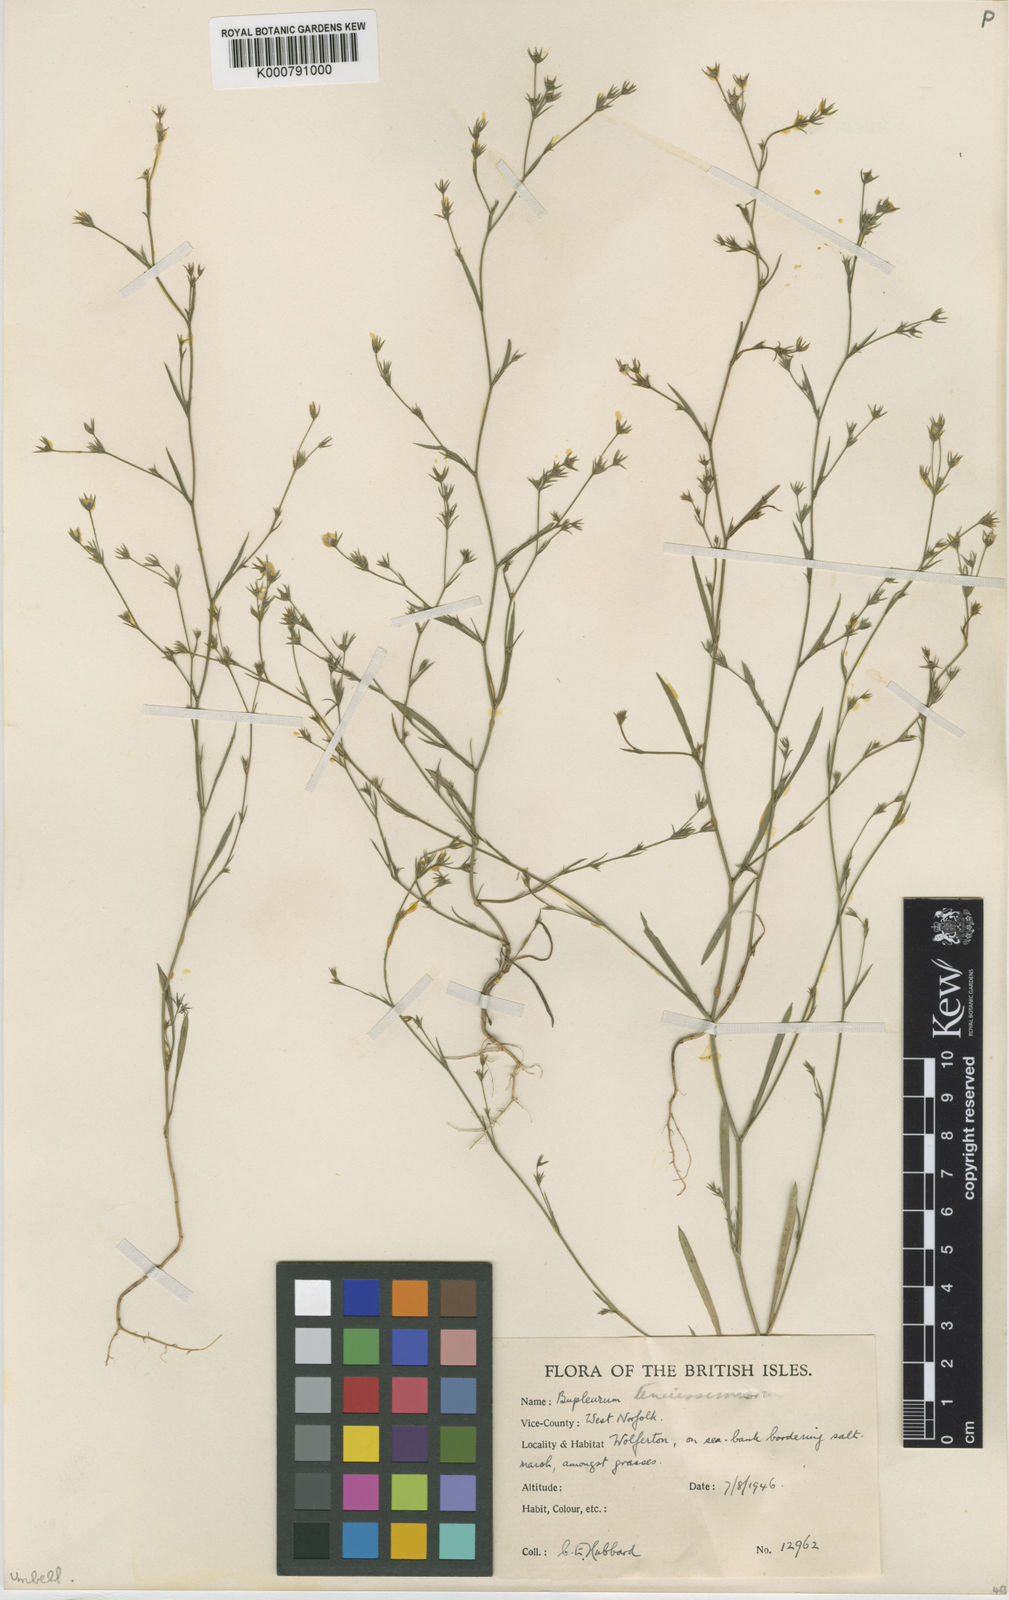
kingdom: Plantae
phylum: Tracheophyta
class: Magnoliopsida
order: Apiales
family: Apiaceae
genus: Bupleurum
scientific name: Bupleurum tenuissimum
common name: Slender hare's-ear
